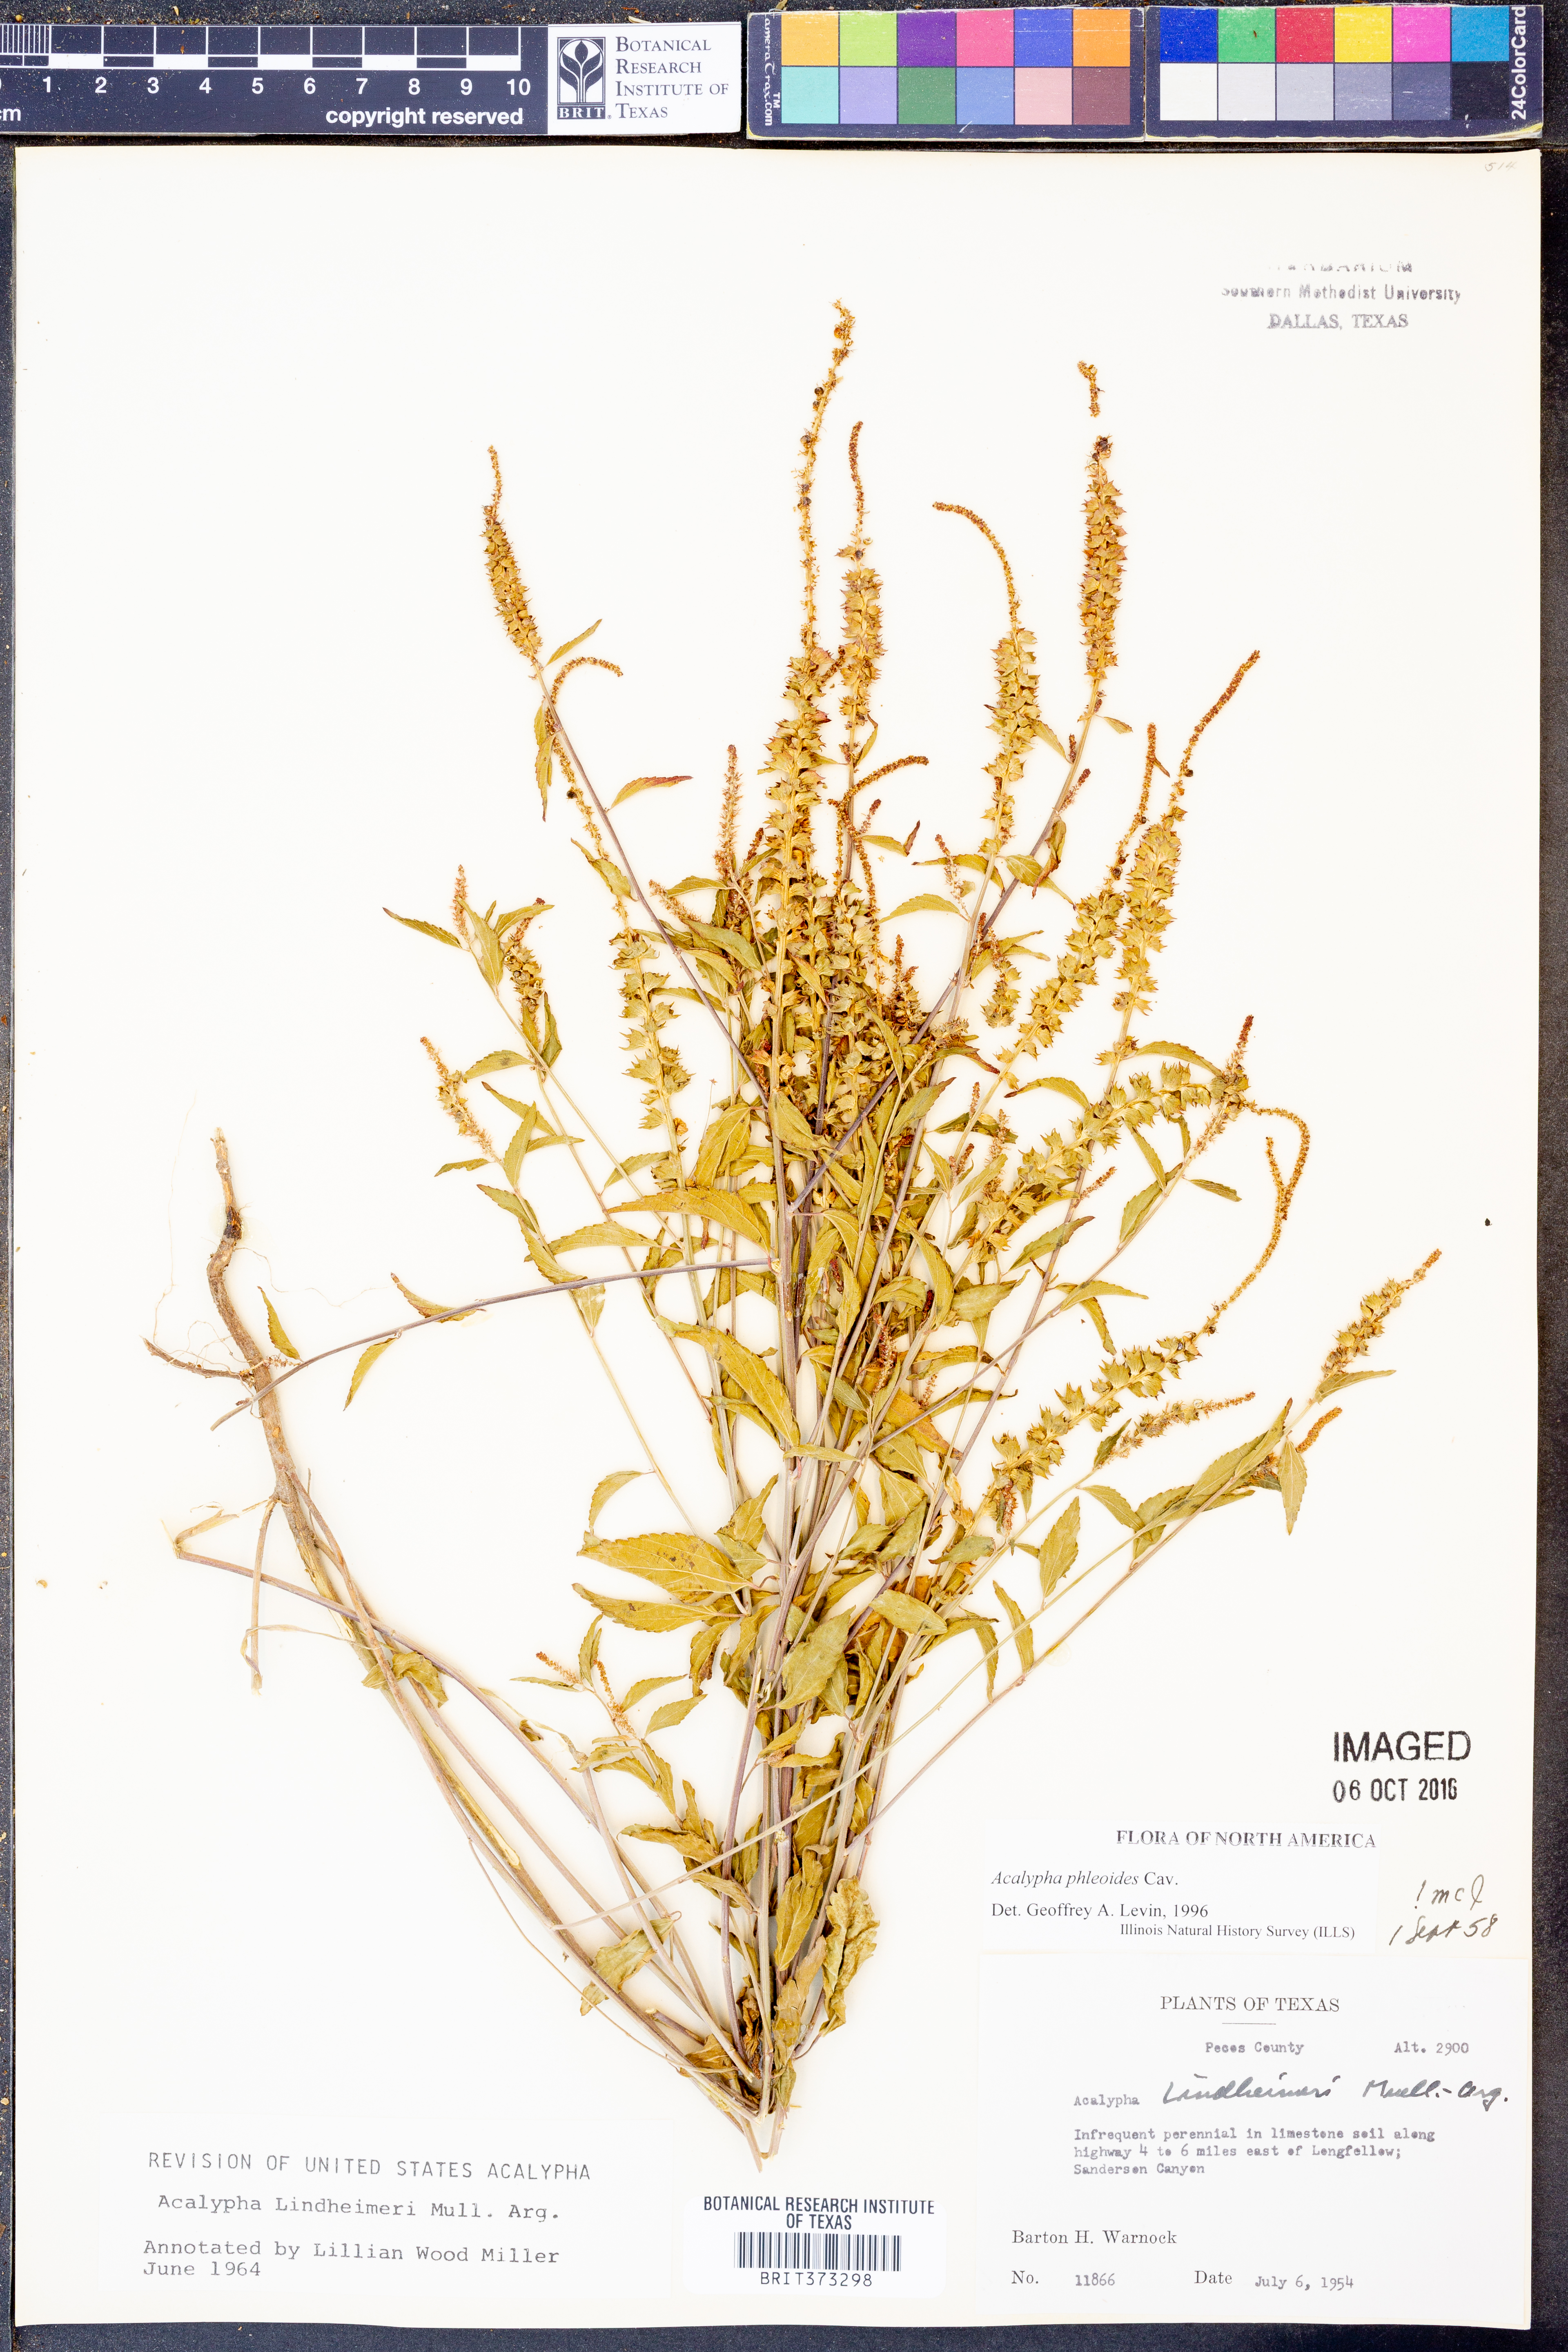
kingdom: Plantae
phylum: Tracheophyta
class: Magnoliopsida
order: Malpighiales
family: Euphorbiaceae
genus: Acalypha
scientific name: Acalypha phleoides
